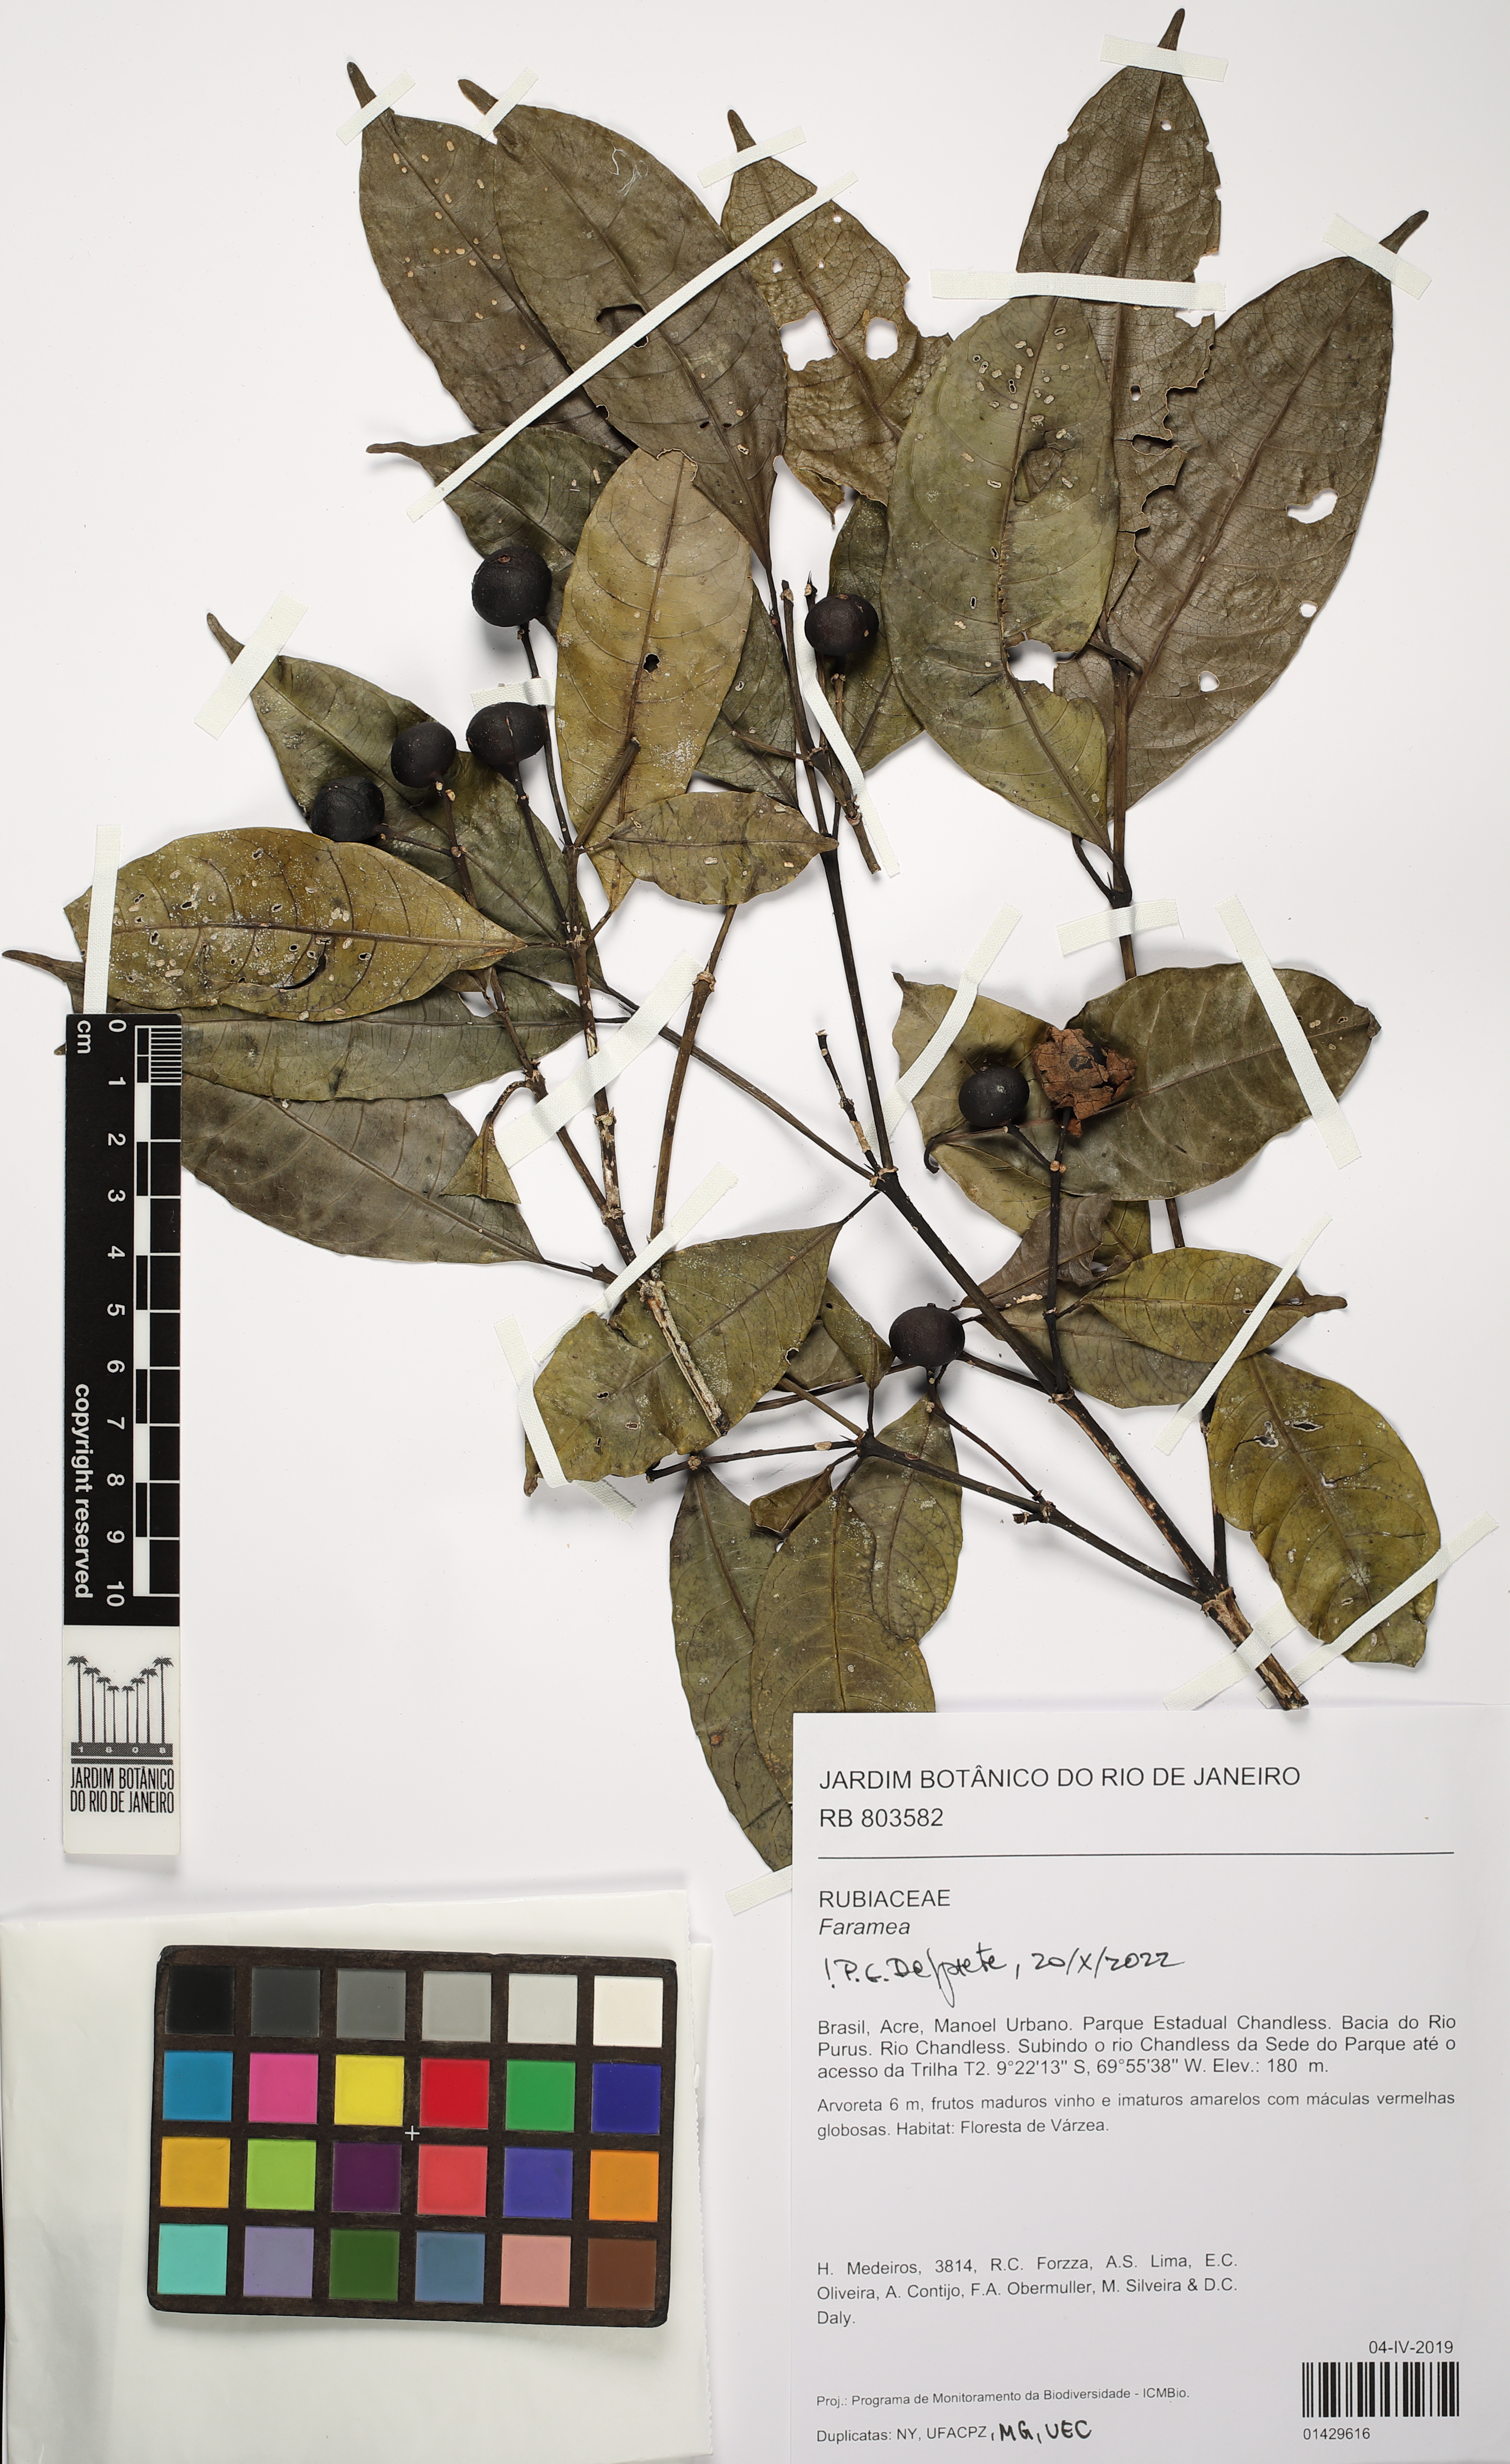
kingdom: Plantae
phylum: Tracheophyta
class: Magnoliopsida
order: Gentianales
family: Rubiaceae
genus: Faramea
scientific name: Faramea
